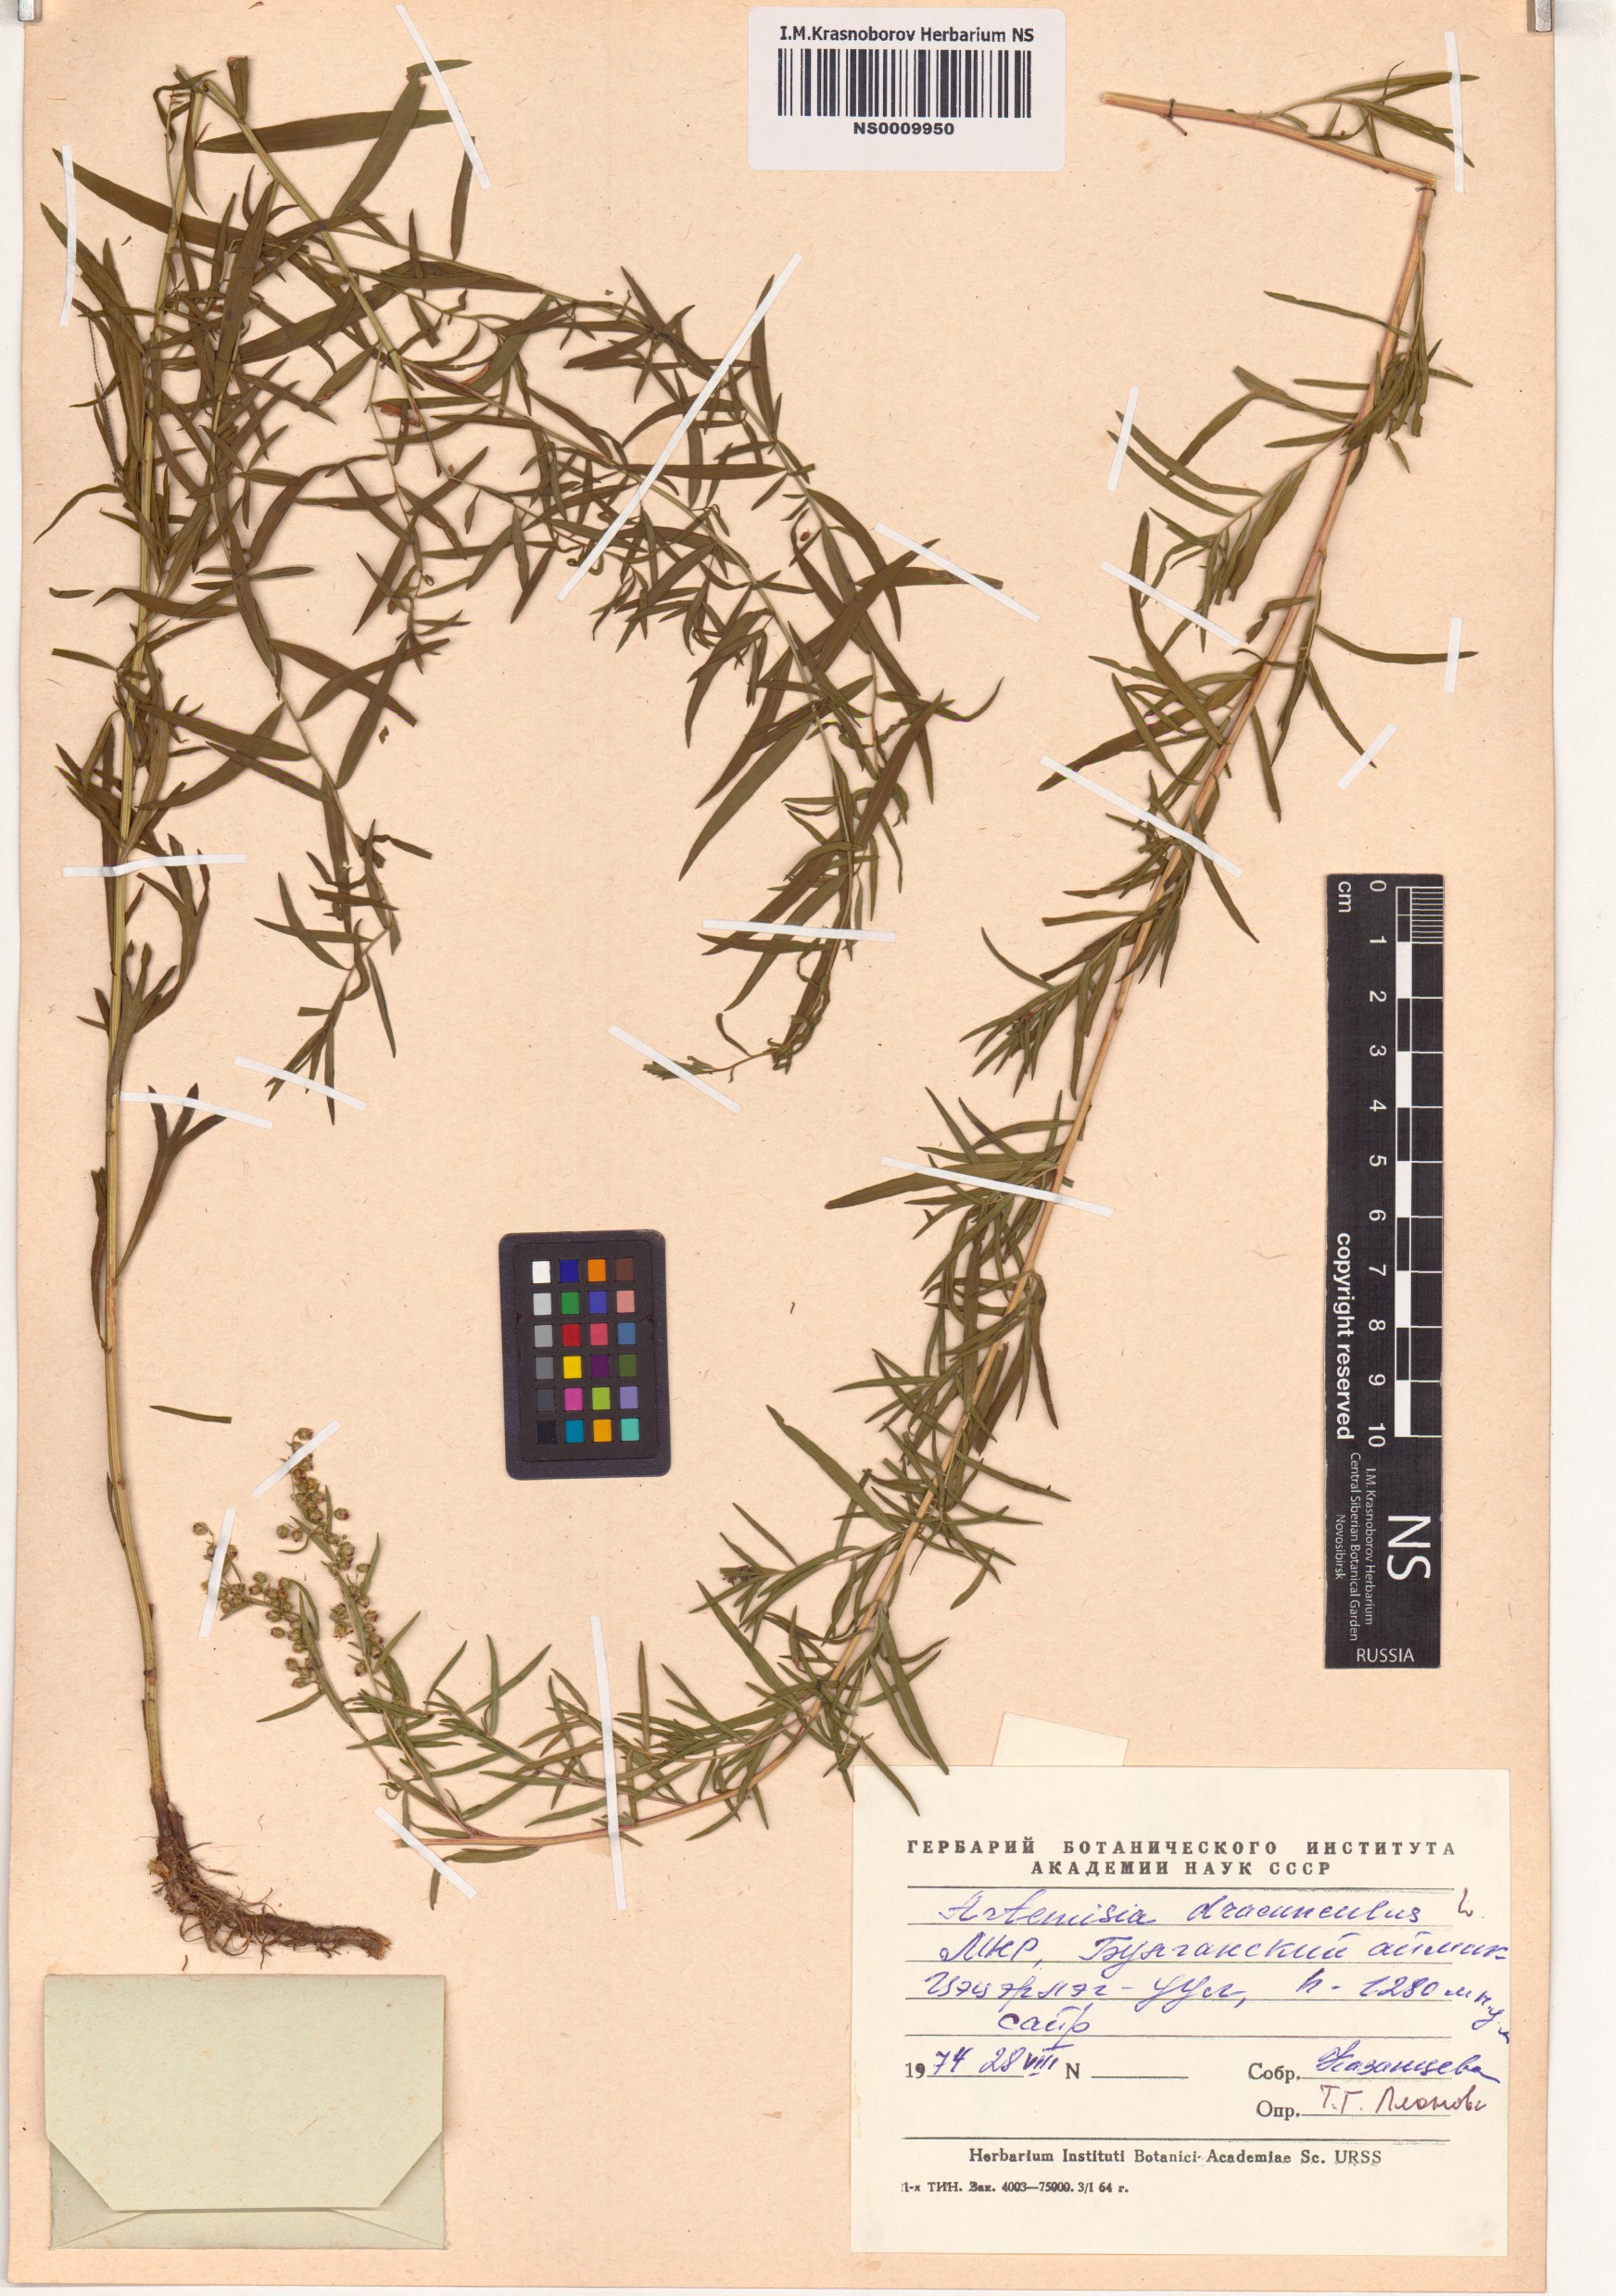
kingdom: Plantae
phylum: Tracheophyta
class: Magnoliopsida
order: Asterales
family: Asteraceae
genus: Artemisia
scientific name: Artemisia dracunculus
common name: Tarragon
